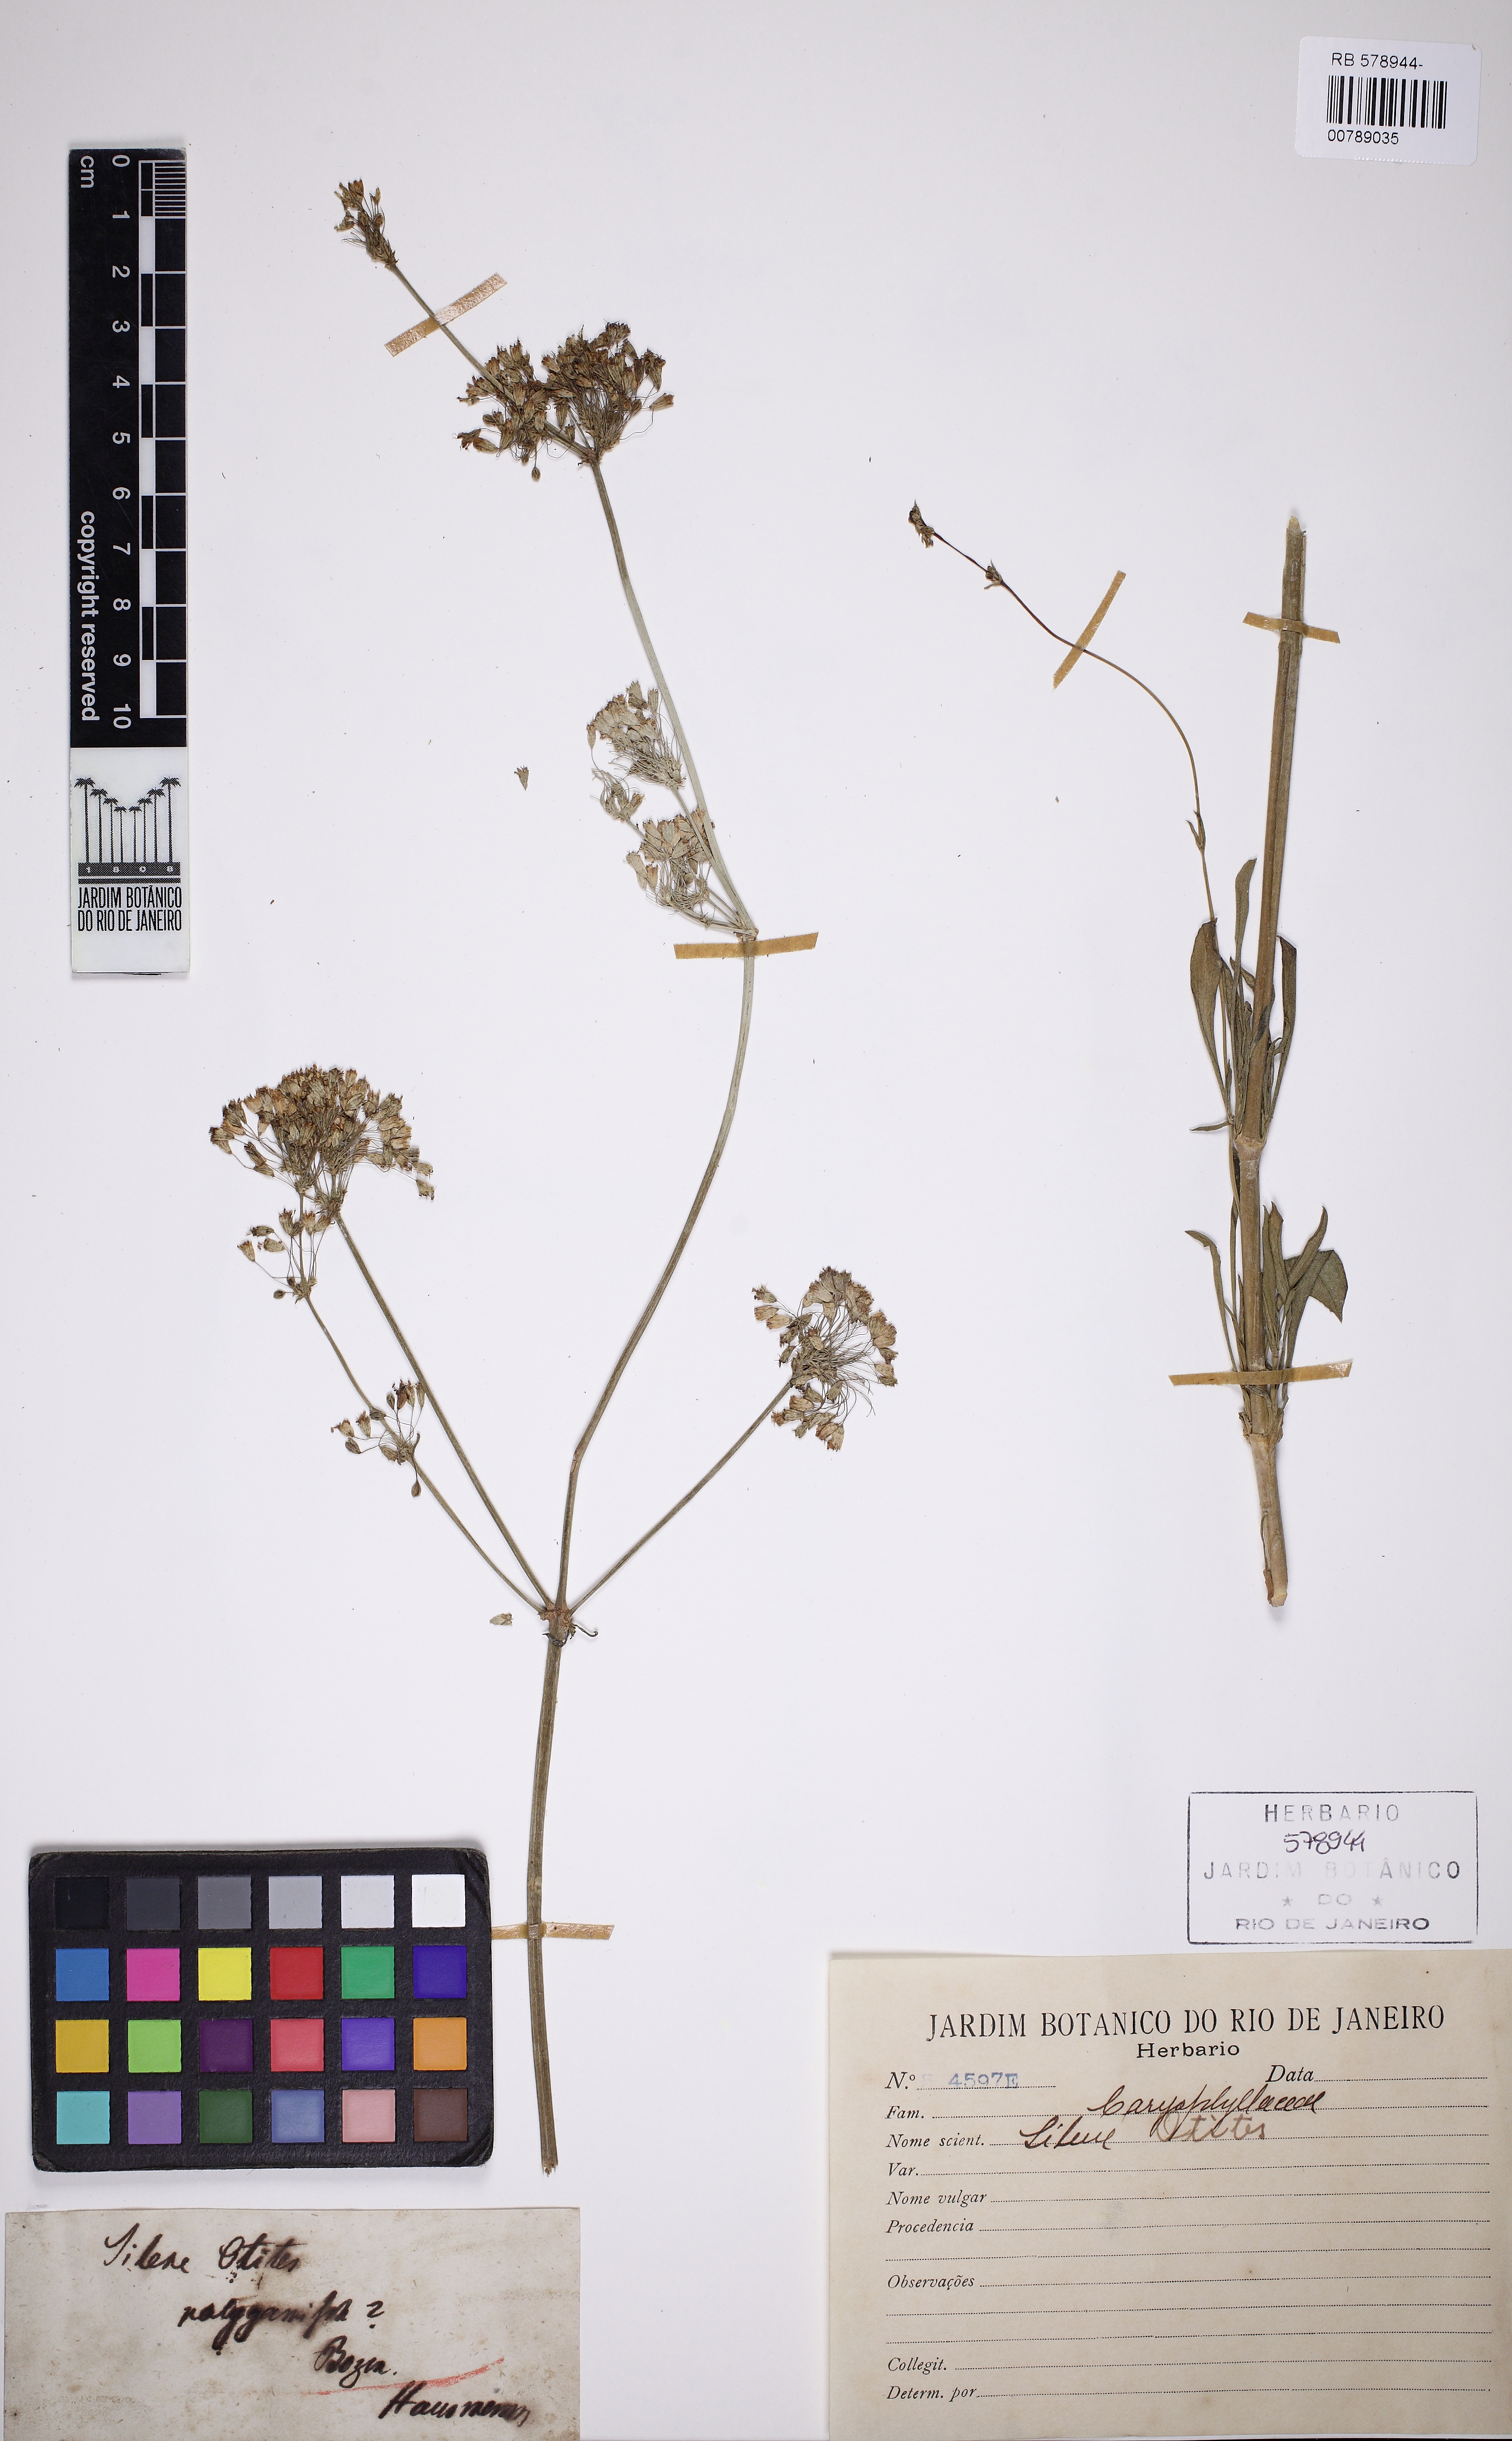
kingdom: Plantae
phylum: Tracheophyta
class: Magnoliopsida
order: Caryophyllales
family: Caryophyllaceae
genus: Silene
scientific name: Silene otites
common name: Spanish catchfly
